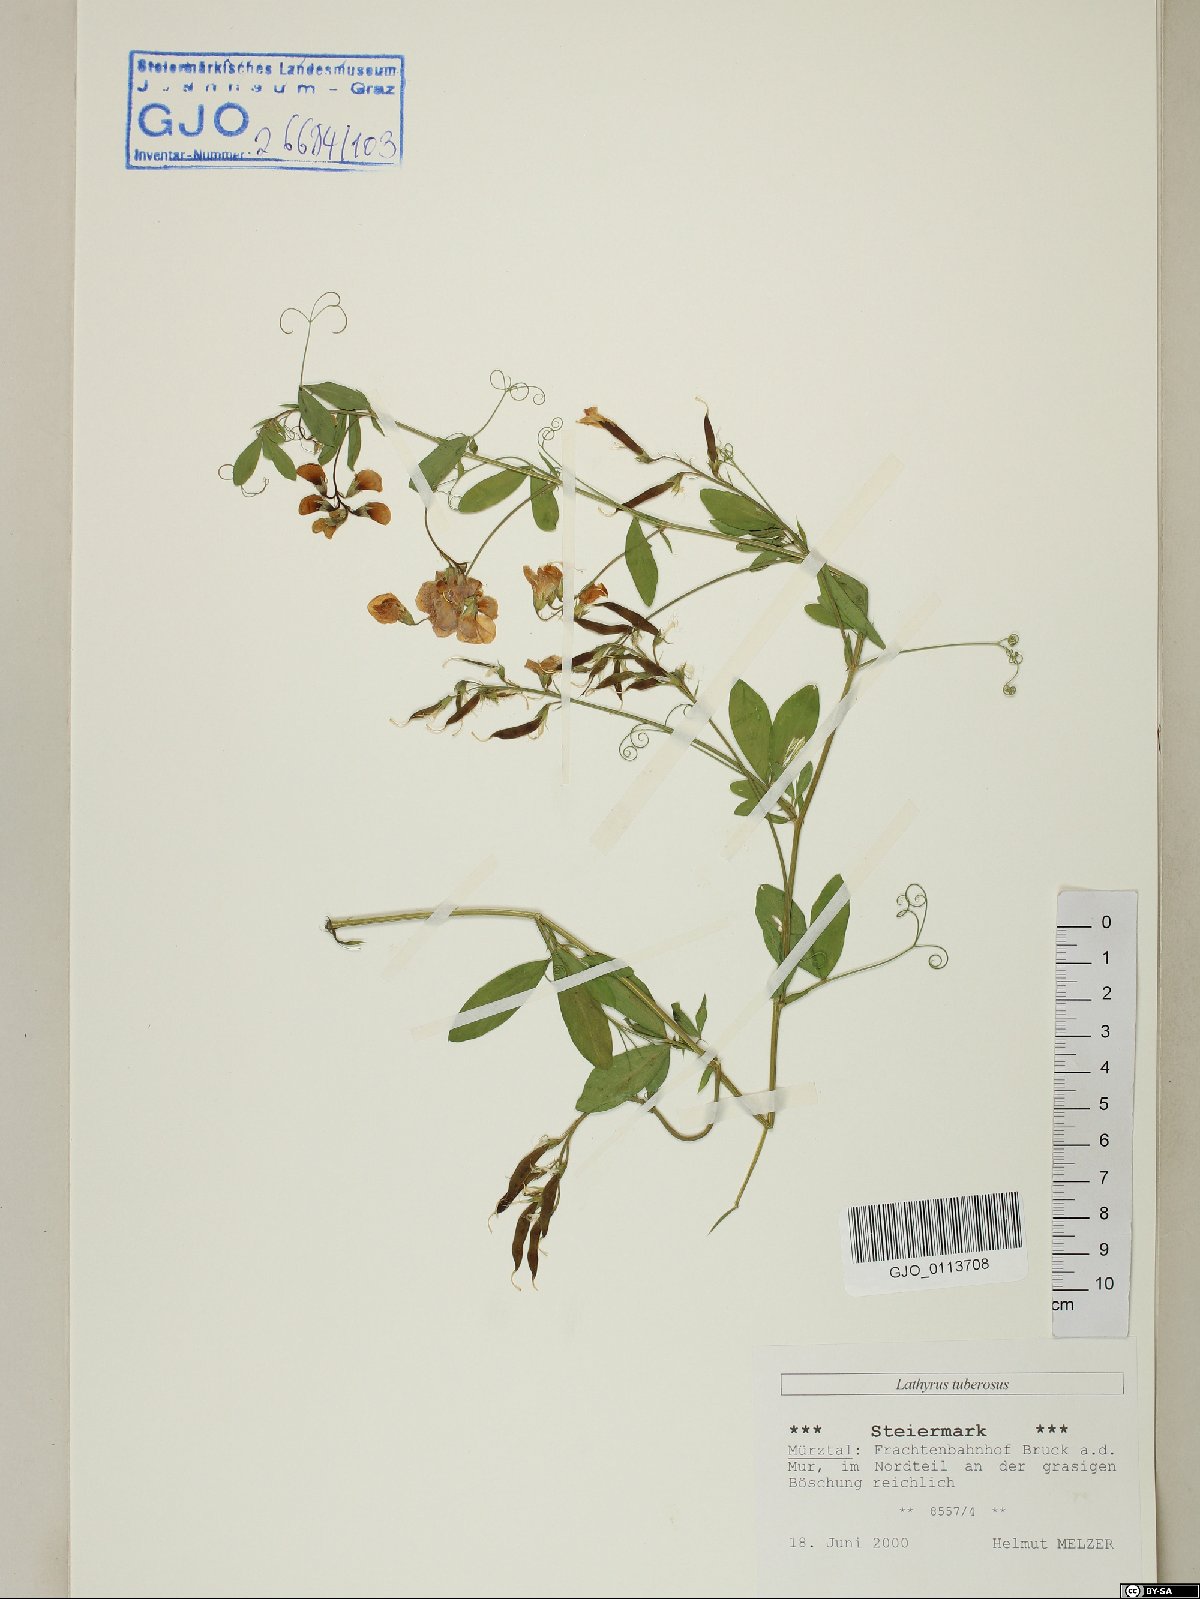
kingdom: Plantae
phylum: Tracheophyta
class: Magnoliopsida
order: Fabales
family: Fabaceae
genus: Lathyrus
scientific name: Lathyrus tuberosus
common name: Tuberous pea
